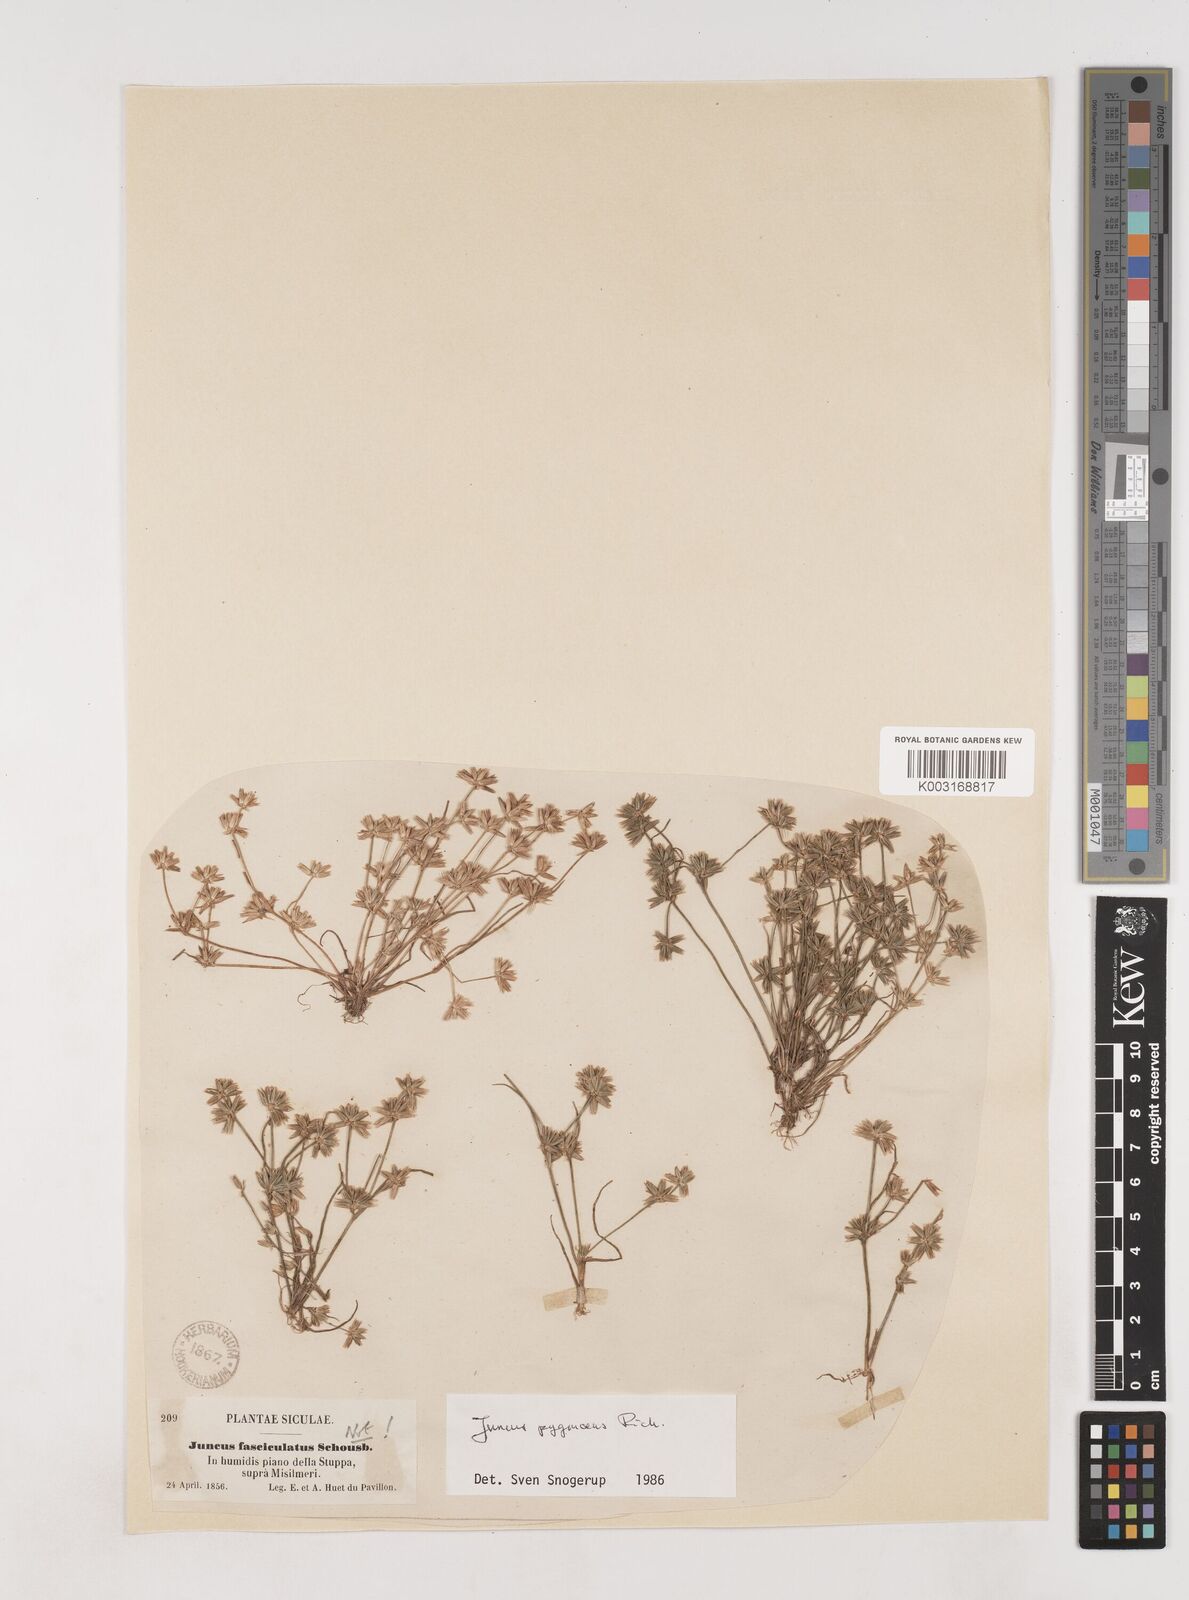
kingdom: Plantae
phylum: Tracheophyta
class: Liliopsida
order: Poales
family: Juncaceae
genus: Juncus
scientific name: Juncus pygmaeus
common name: Pigmy rush
